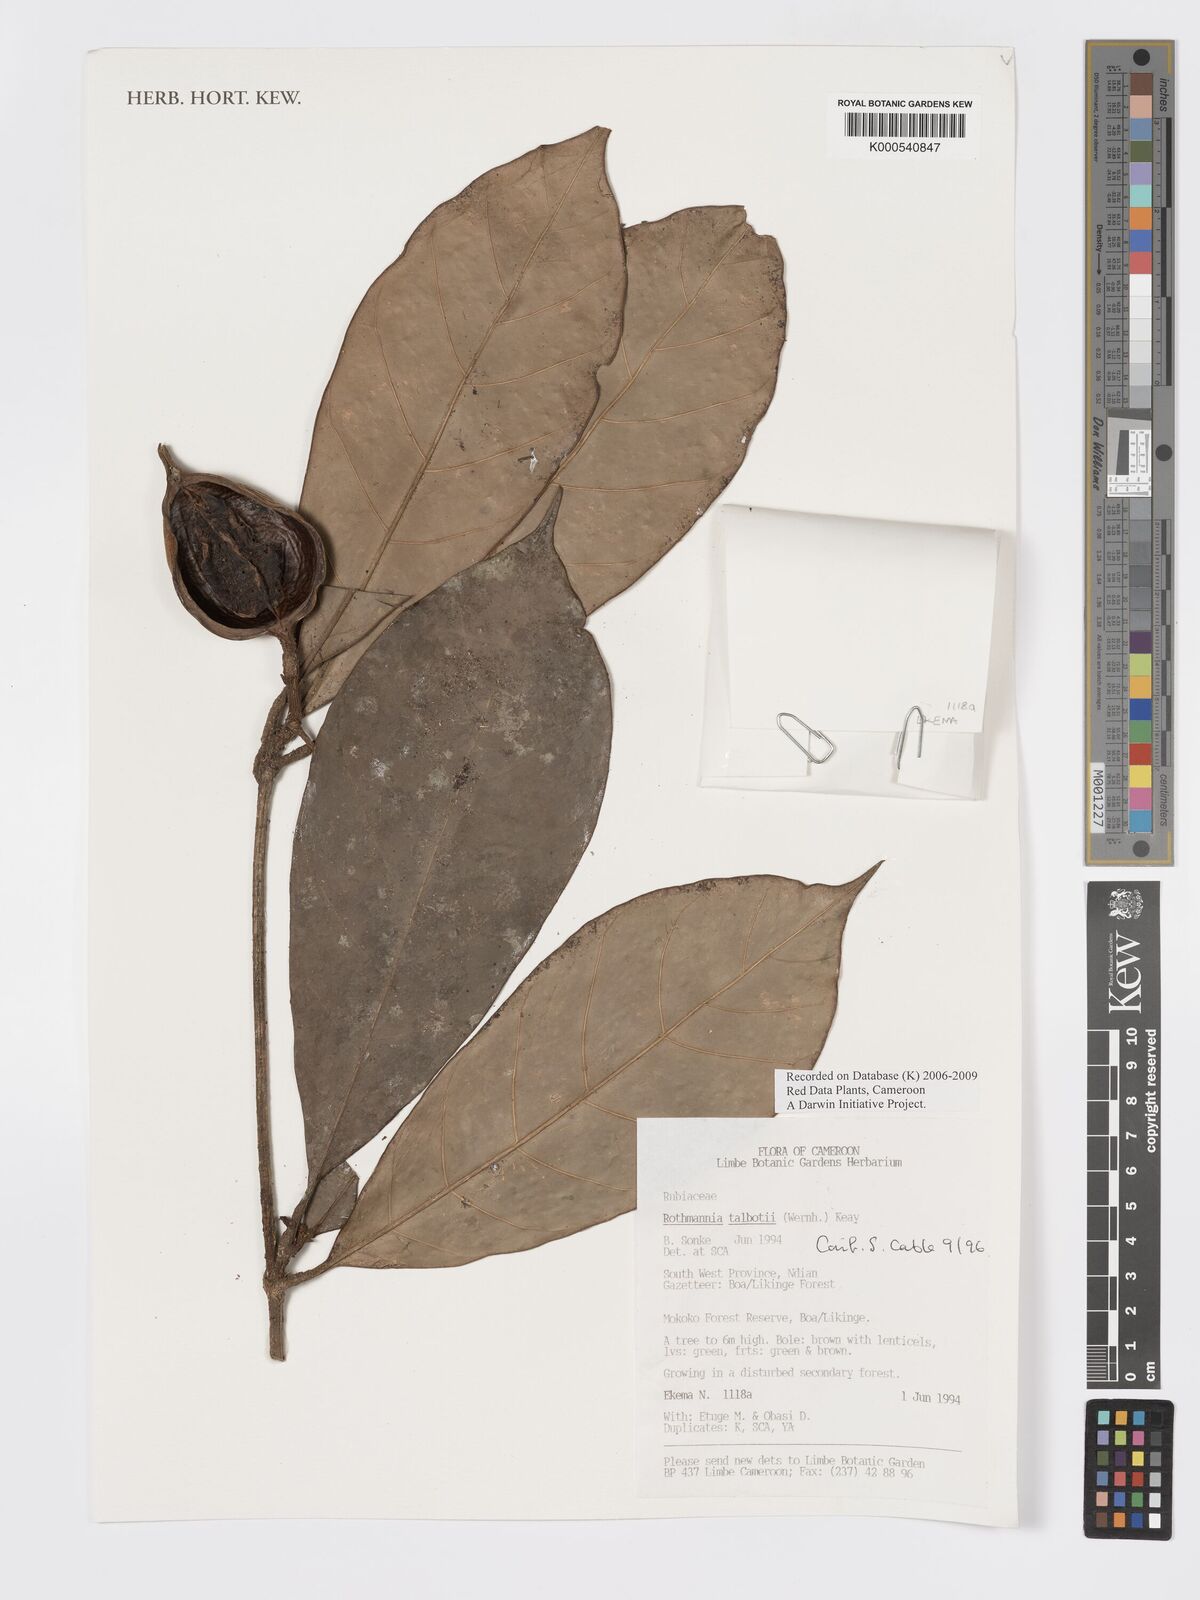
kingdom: Plantae
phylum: Tracheophyta
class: Magnoliopsida
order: Gentianales
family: Rubiaceae
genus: Rothmannia
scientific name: Rothmannia talbotii
